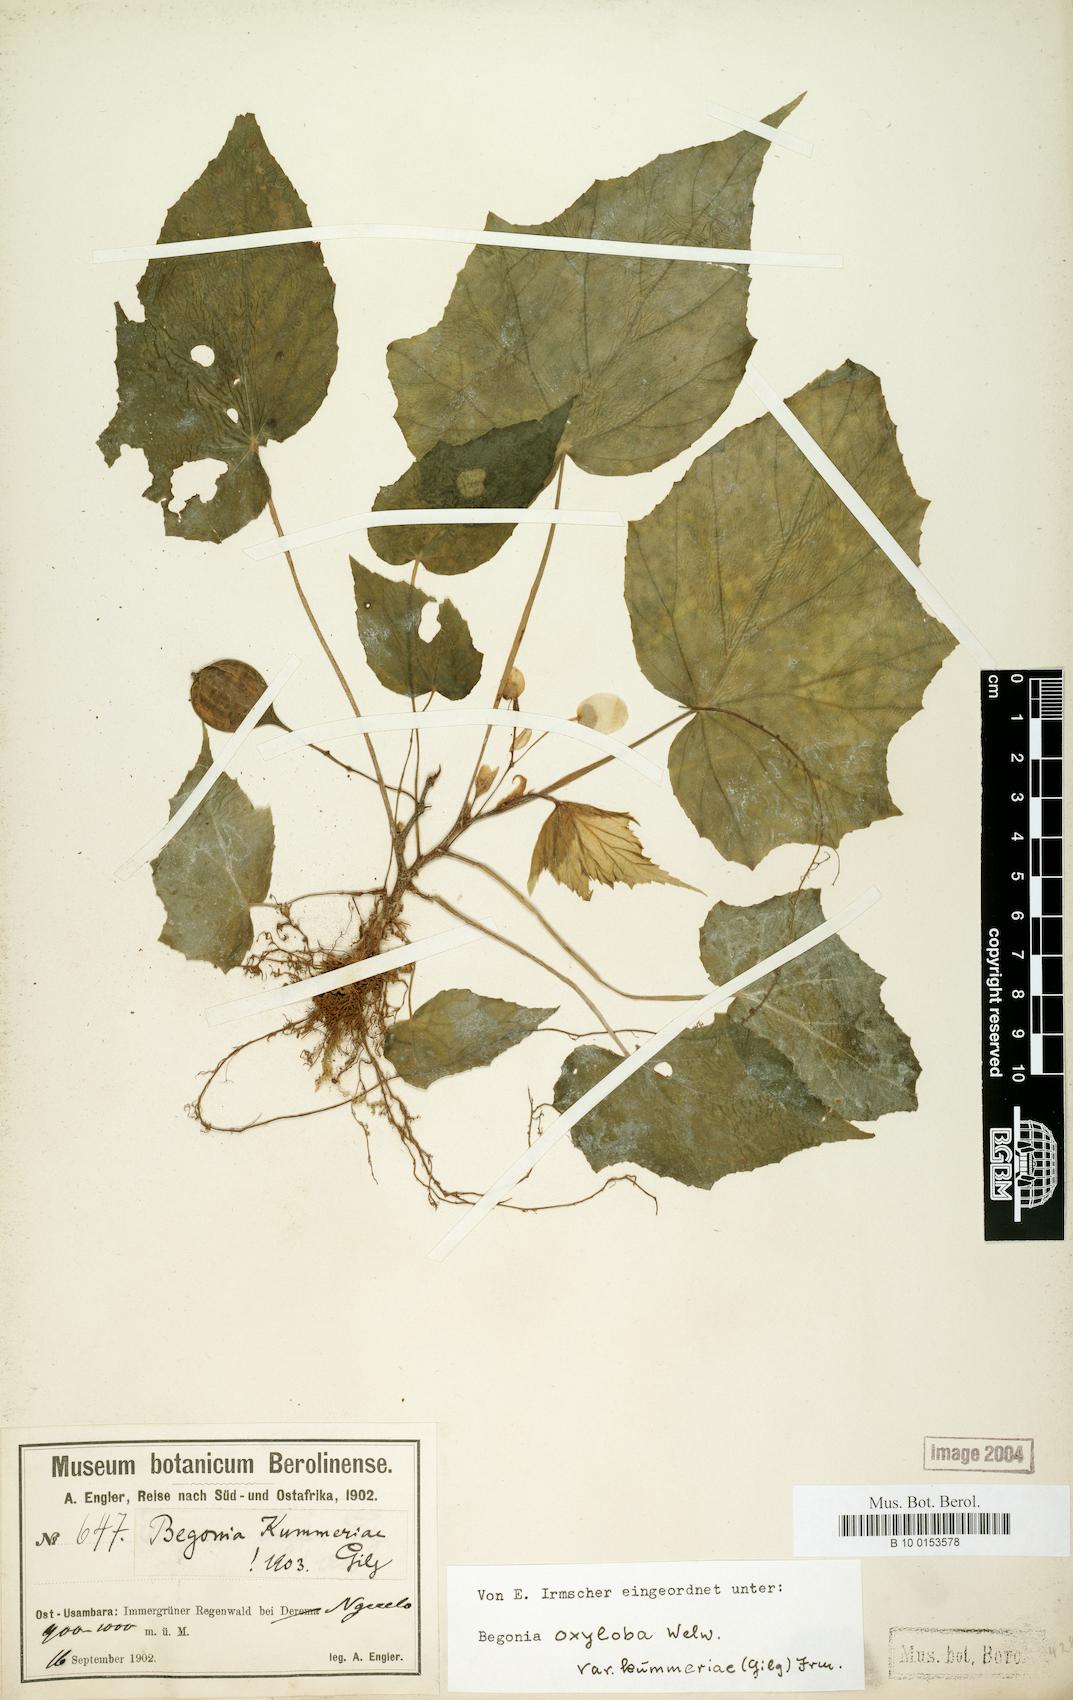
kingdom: Plantae
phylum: Tracheophyta
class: Magnoliopsida
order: Cucurbitales
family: Begoniaceae
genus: Begonia
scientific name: Begonia oxyloba
